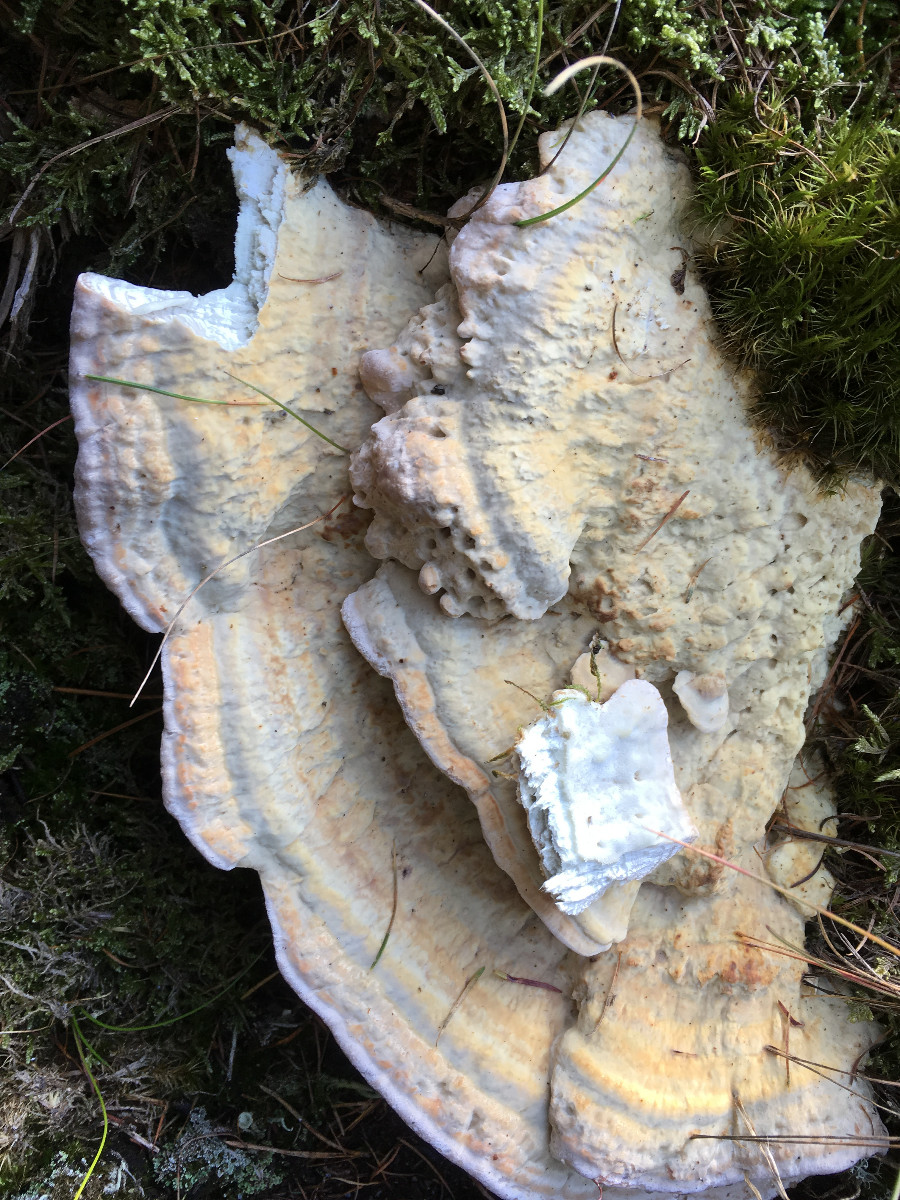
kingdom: Fungi
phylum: Basidiomycota
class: Agaricomycetes
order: Polyporales
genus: Calcipostia
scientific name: Calcipostia guttulata
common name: dråbe-kødporesvamp
